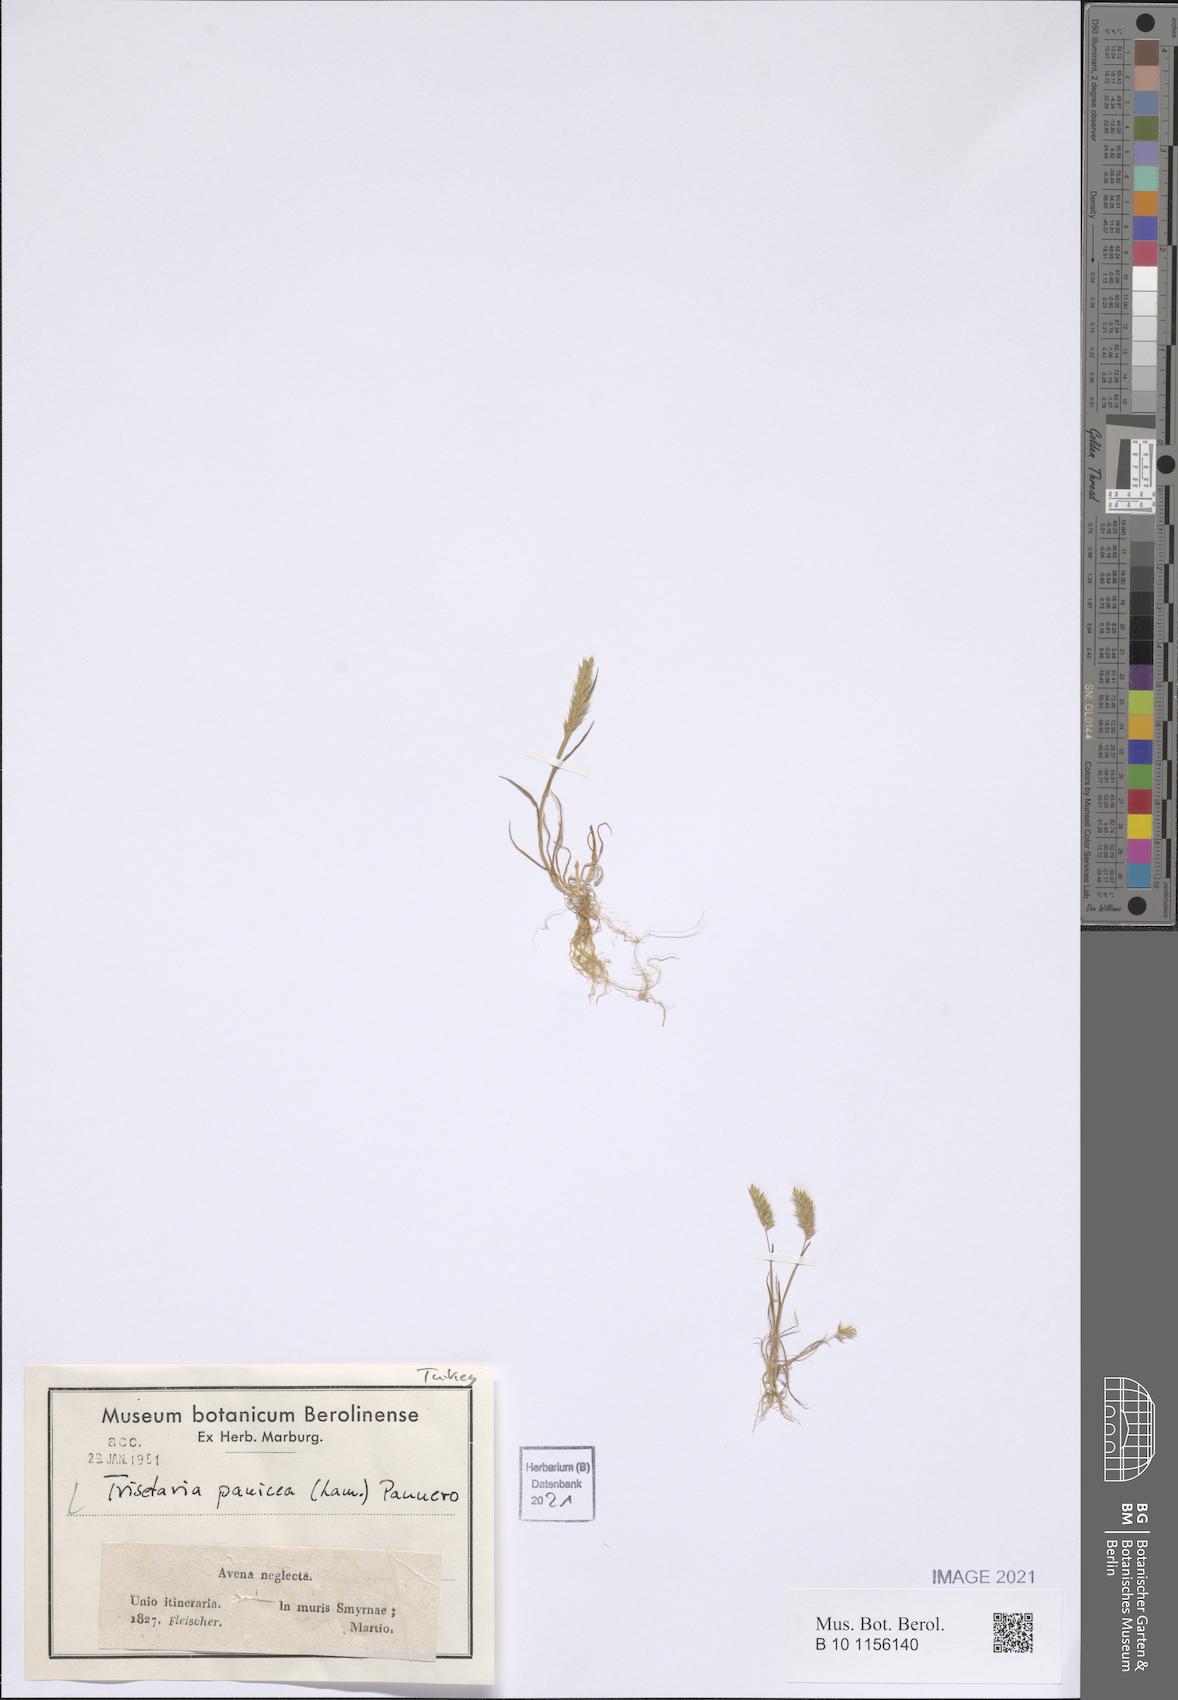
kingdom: Plantae
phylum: Tracheophyta
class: Liliopsida
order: Poales
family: Poaceae
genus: Trisetaria
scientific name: Trisetaria panicea
